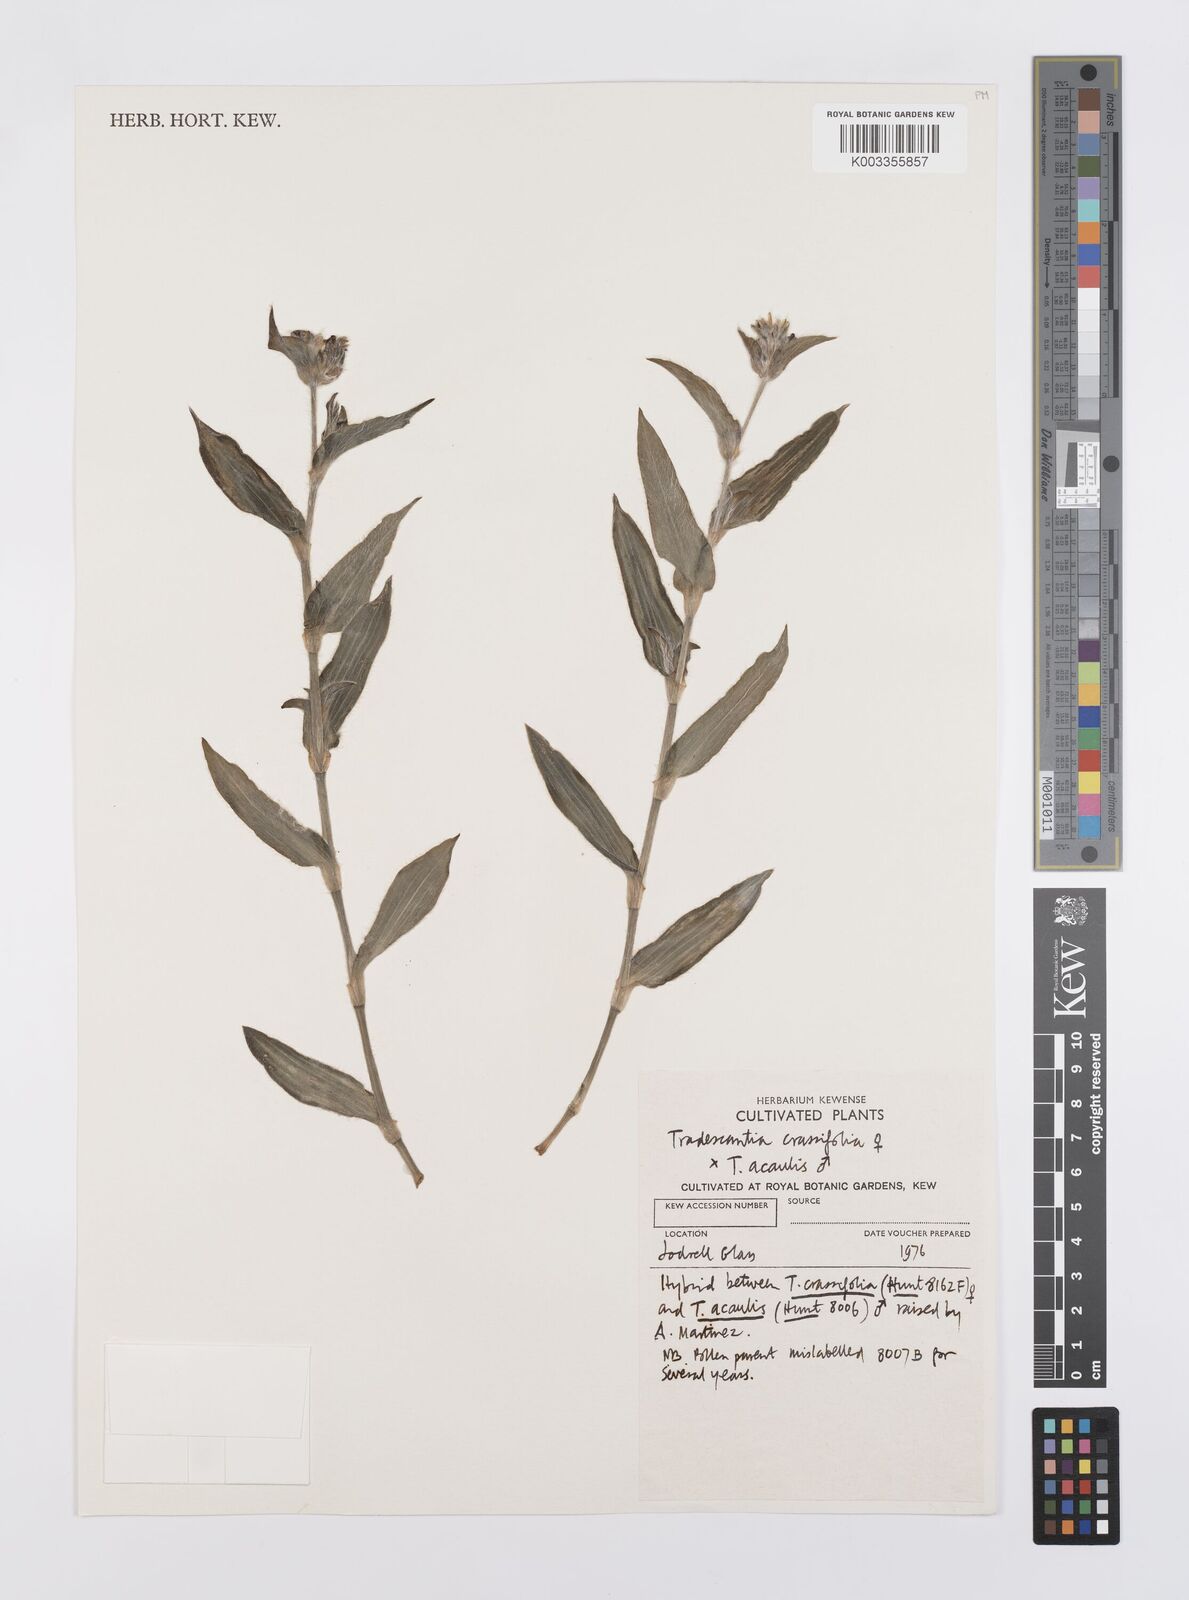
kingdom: Plantae
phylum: Tracheophyta
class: Liliopsida
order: Commelinales
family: Commelinaceae
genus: Tradescantia
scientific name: Tradescantia
